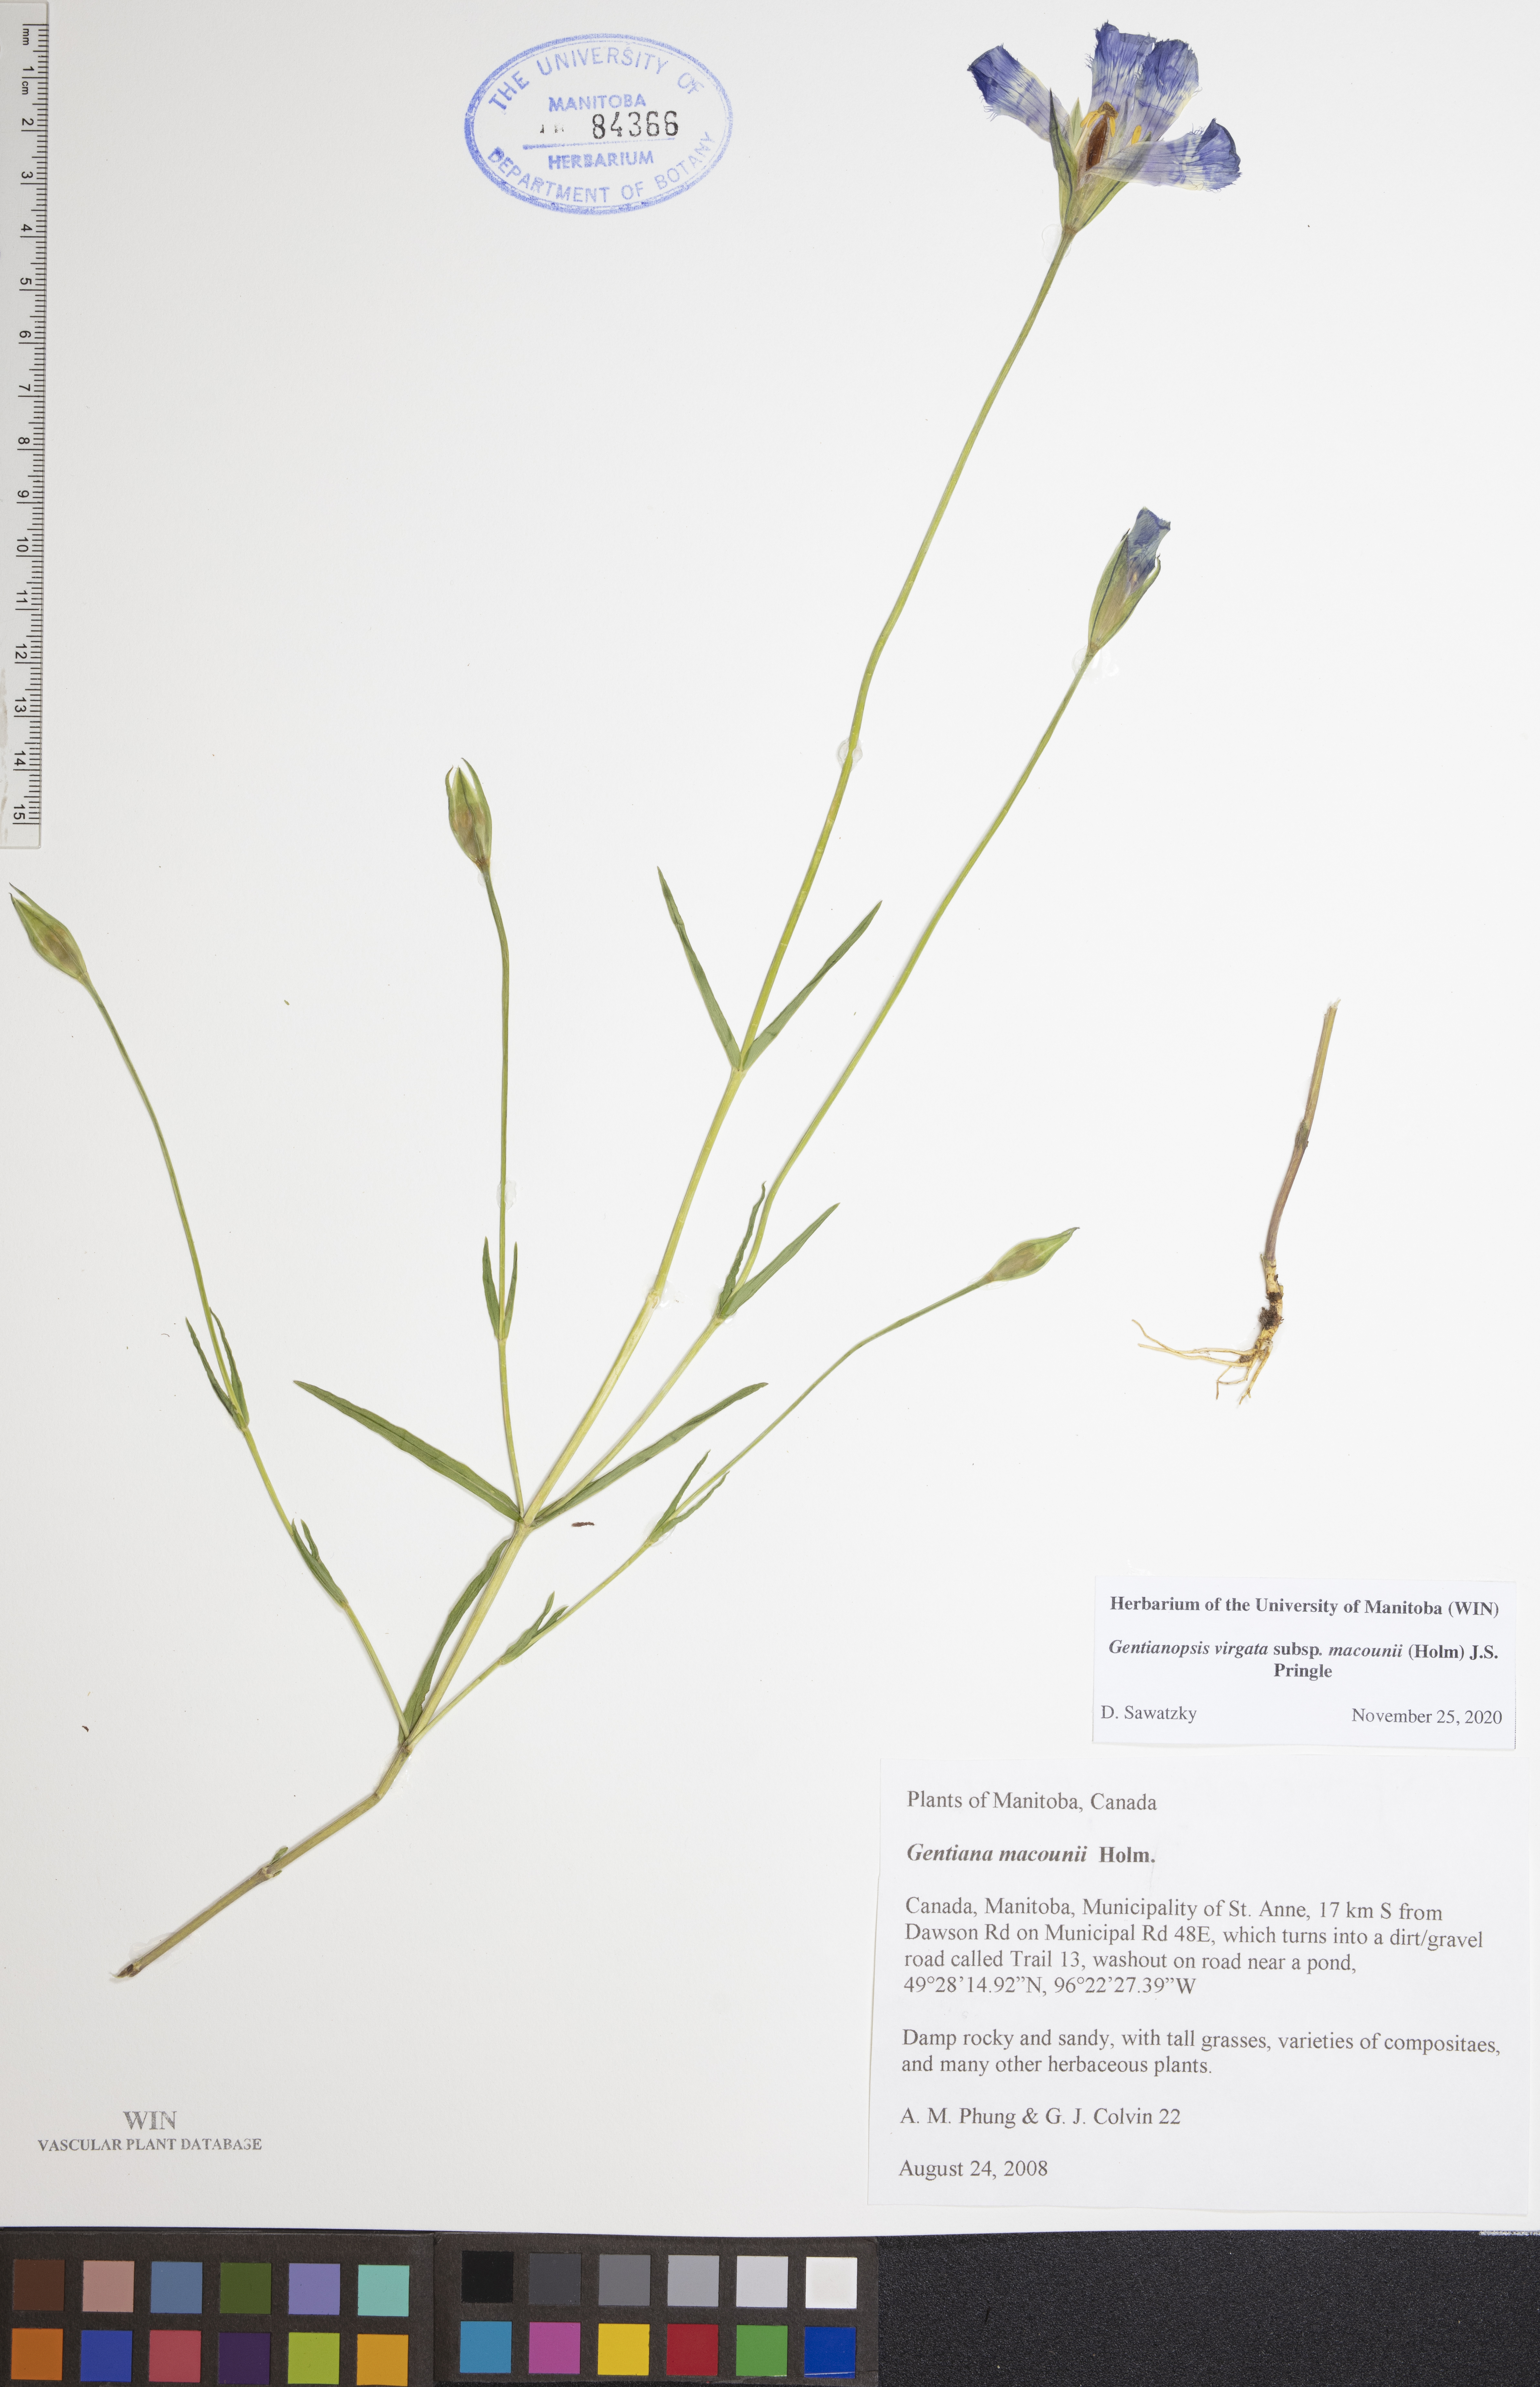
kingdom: Plantae
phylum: Tracheophyta
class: Magnoliopsida
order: Gentianales
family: Gentianaceae
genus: Gentianopsis
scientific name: Gentianopsis macounii
